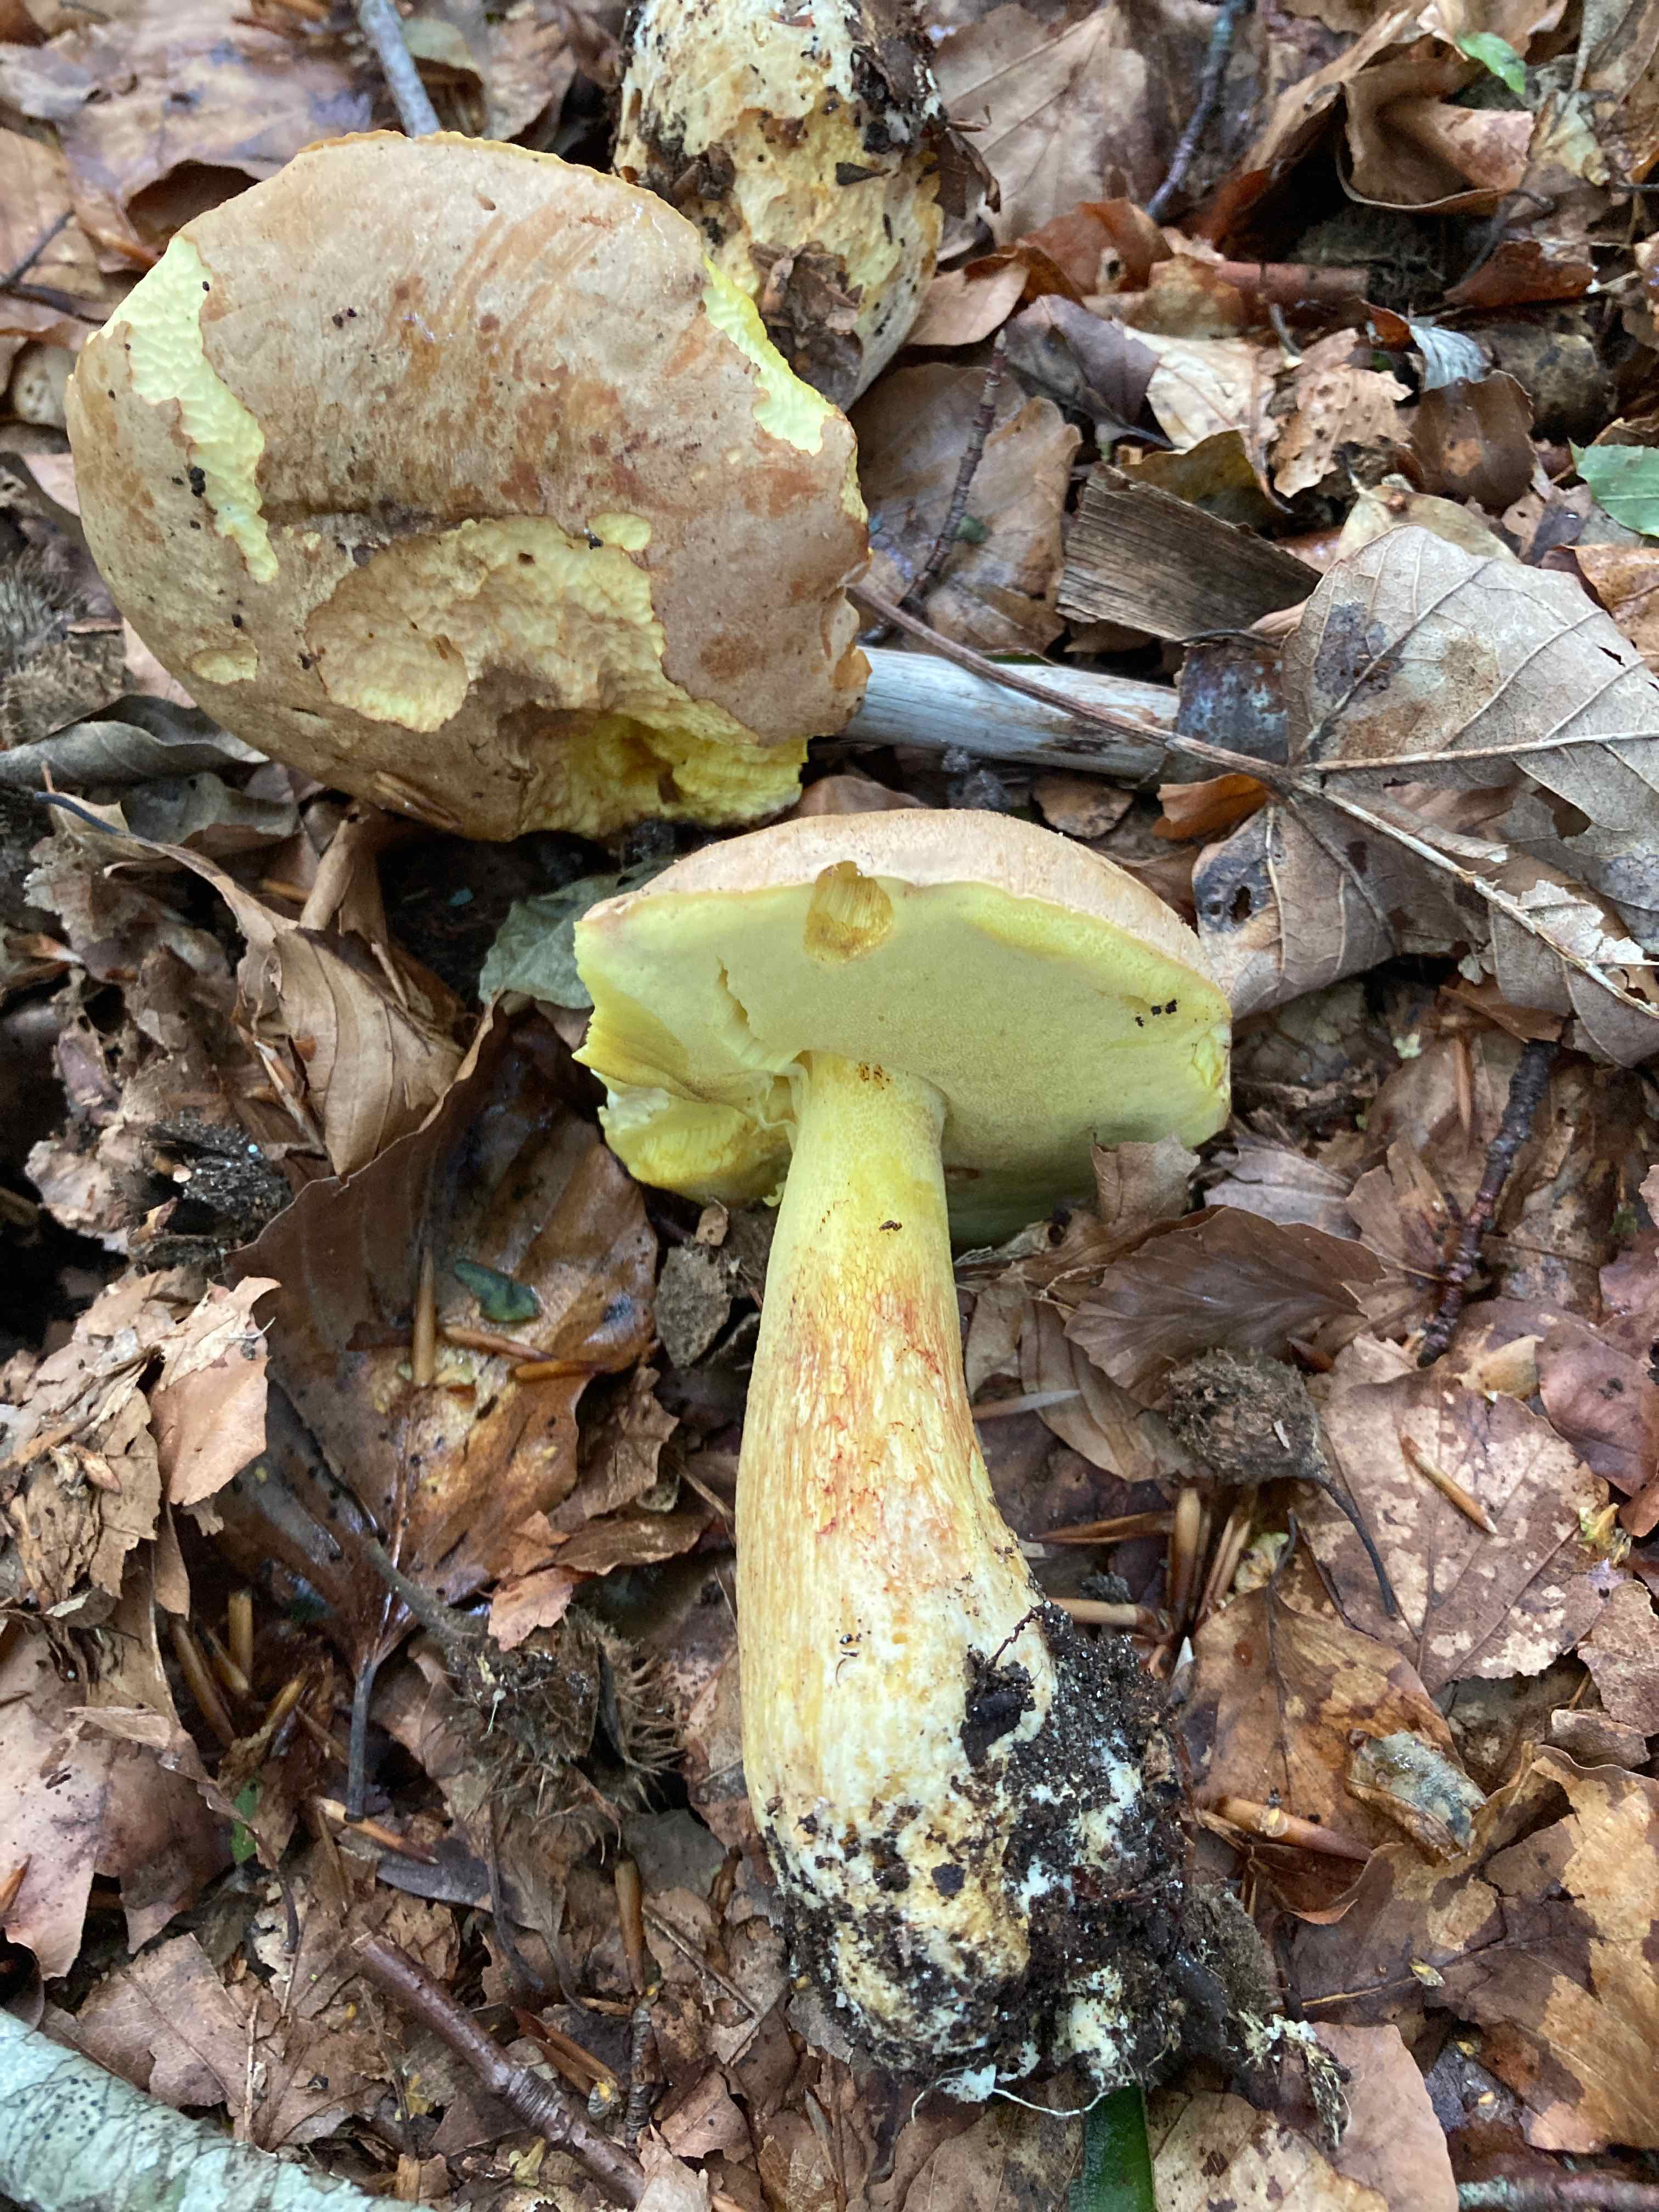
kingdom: Fungi
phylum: Basidiomycota
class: Agaricomycetes
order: Boletales
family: Boletaceae
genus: Butyriboletus
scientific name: Butyriboletus appendiculatus
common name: tenstokket rørhat
